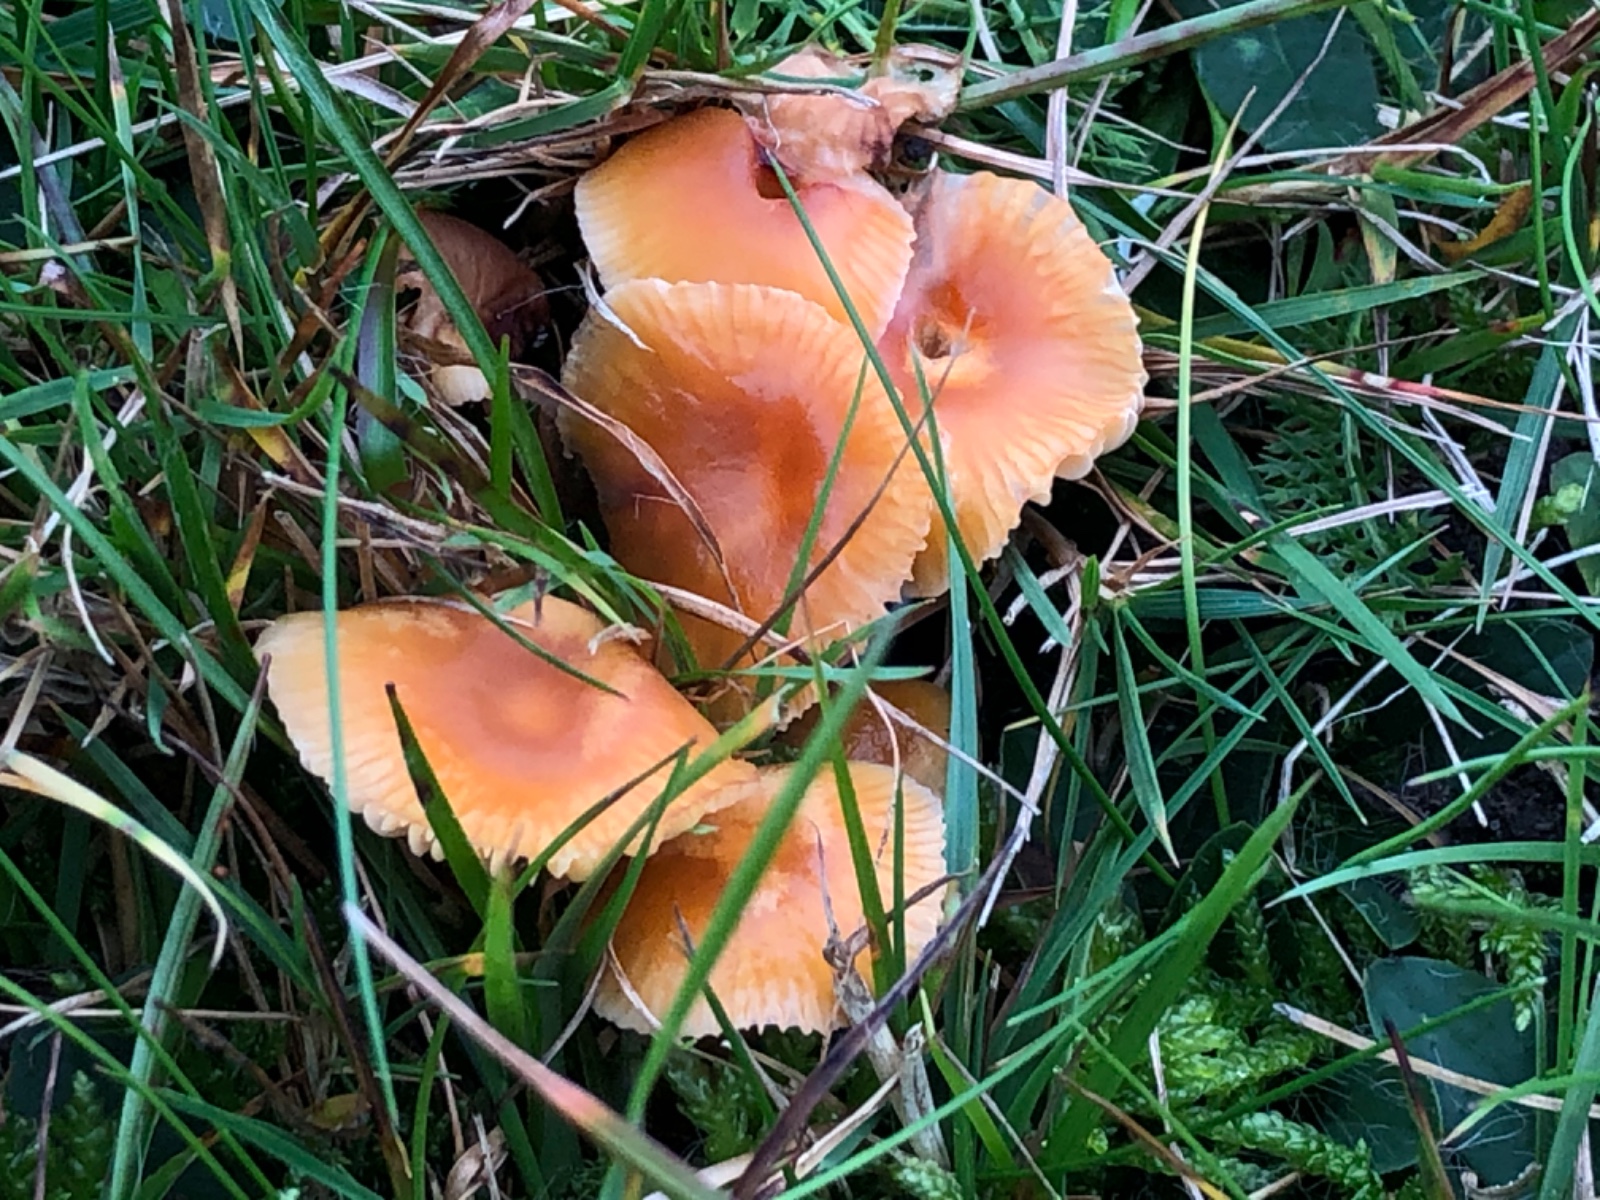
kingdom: Fungi
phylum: Basidiomycota
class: Agaricomycetes
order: Agaricales
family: Hygrophoraceae
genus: Gliophorus
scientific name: Gliophorus laetus
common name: brusk-vokshat
